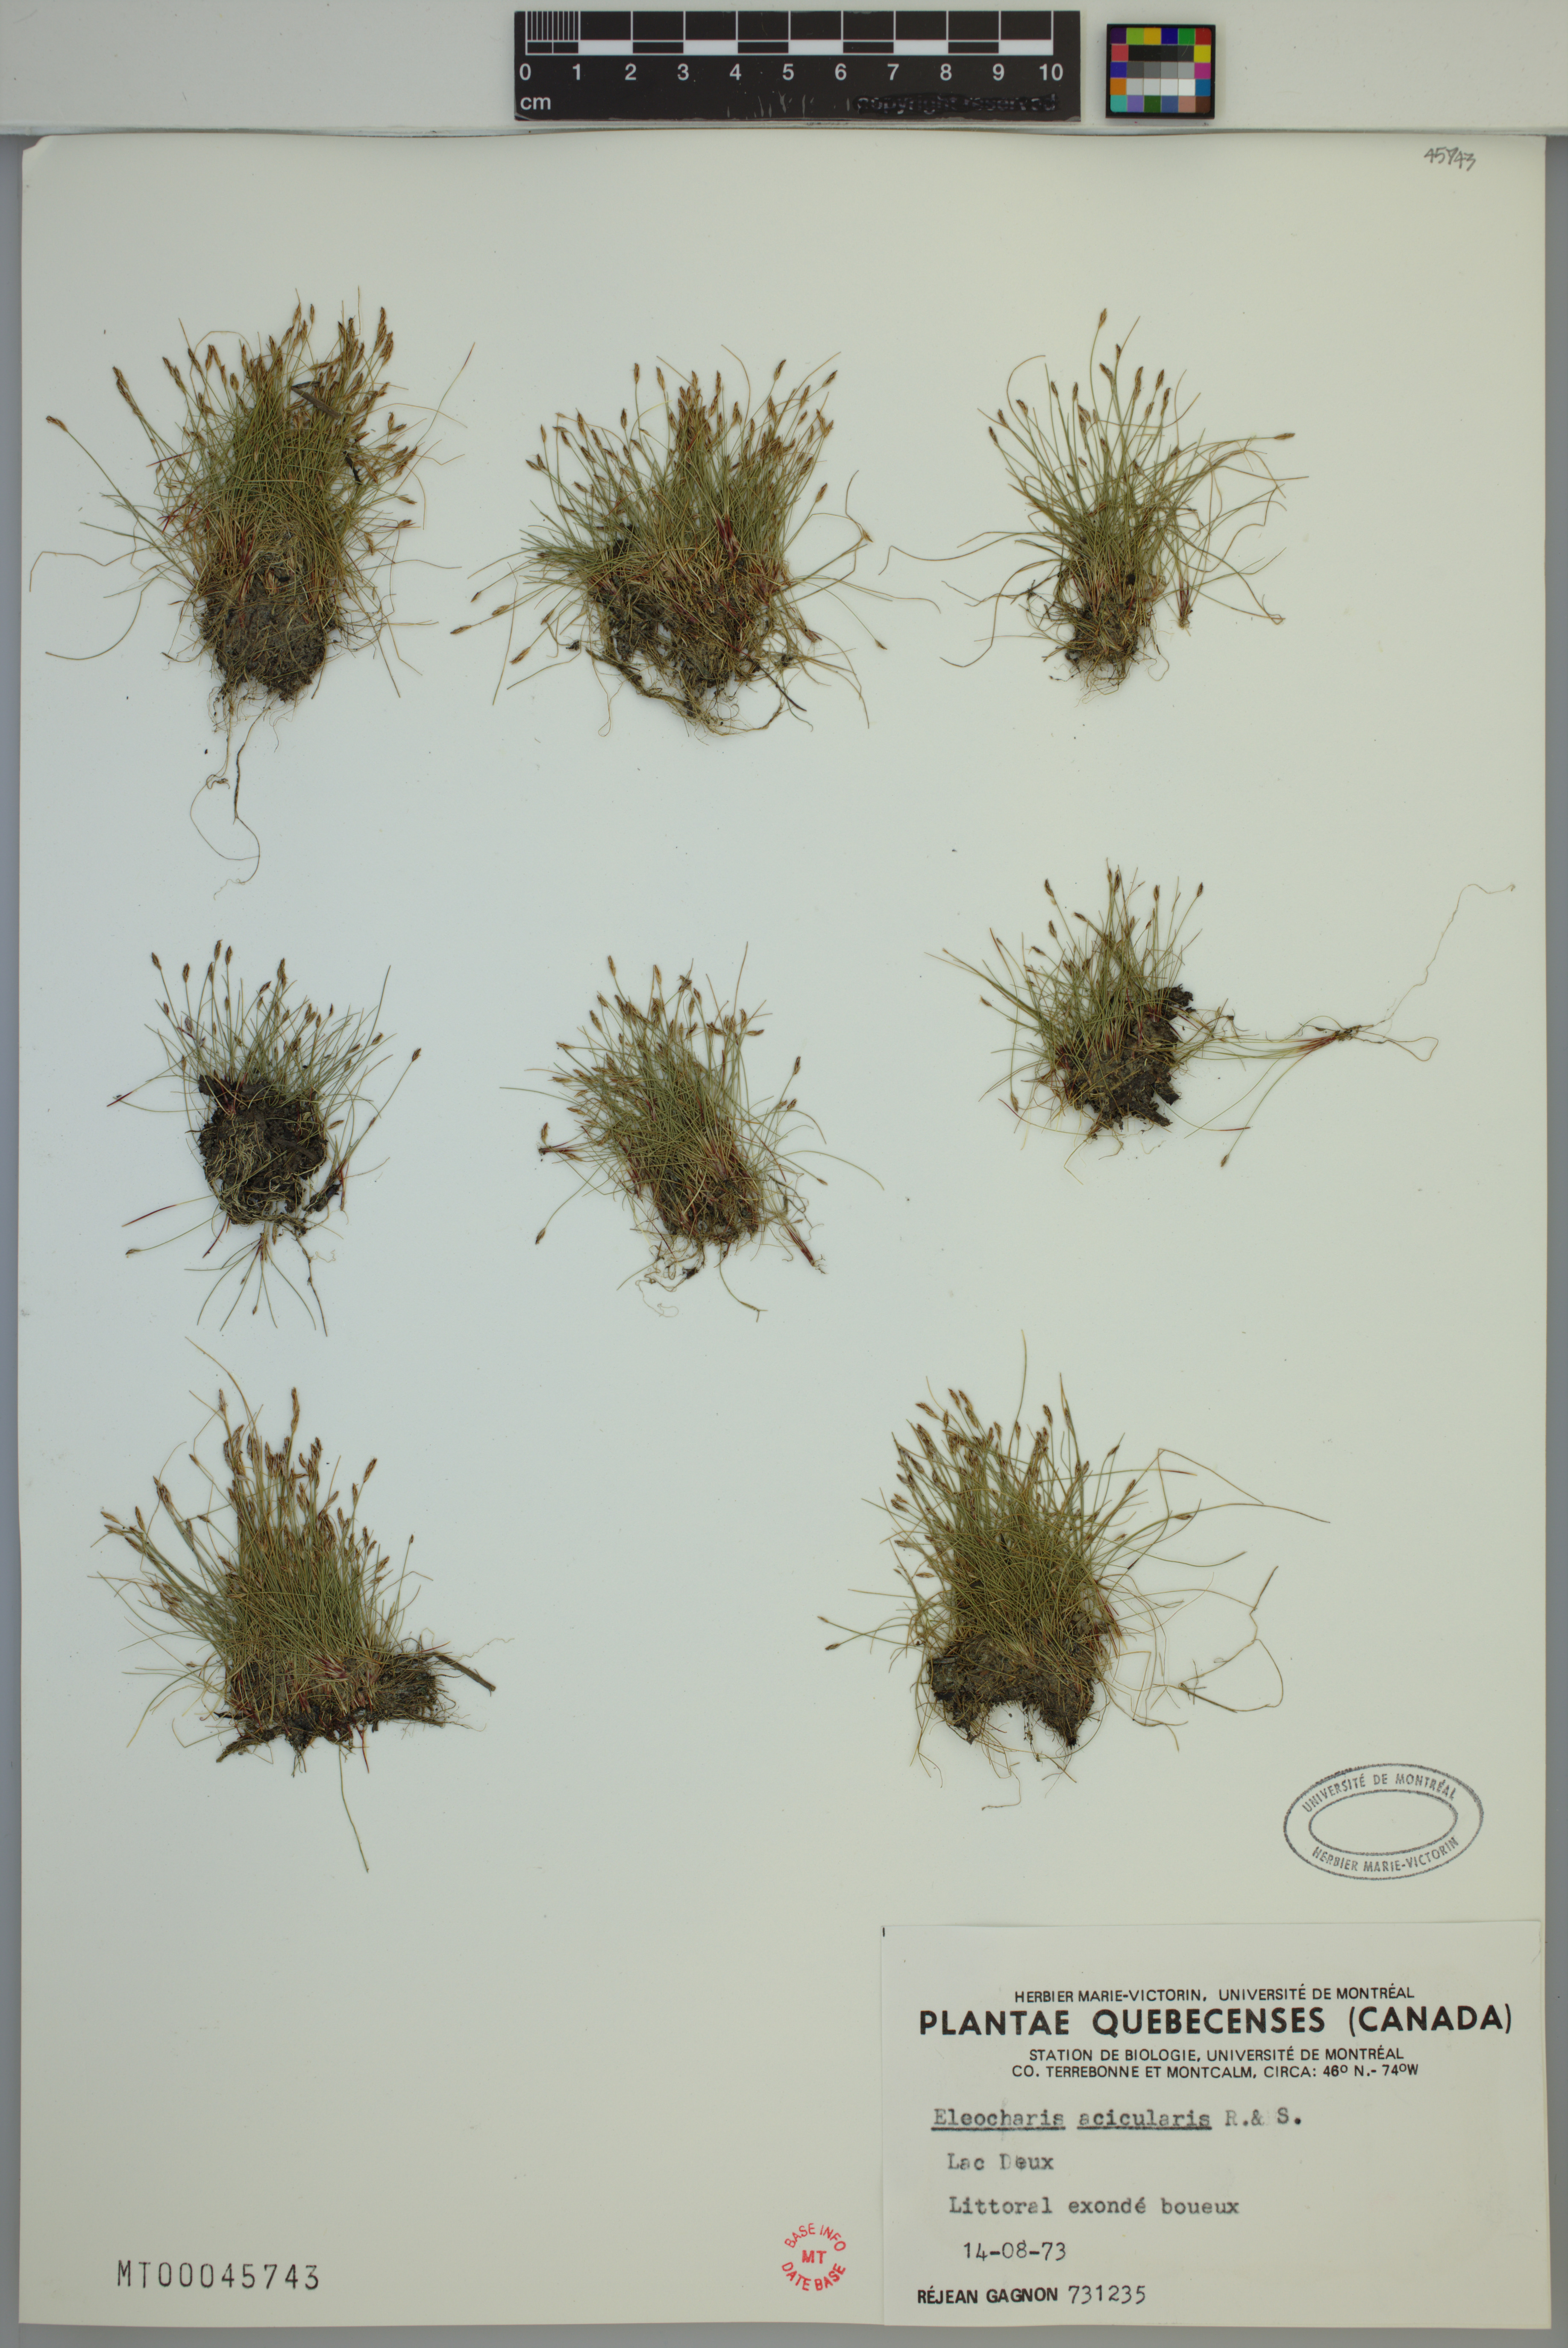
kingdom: Plantae
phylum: Tracheophyta
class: Liliopsida
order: Poales
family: Cyperaceae
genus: Eleocharis
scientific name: Eleocharis acicularis
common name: Needle spike-rush
